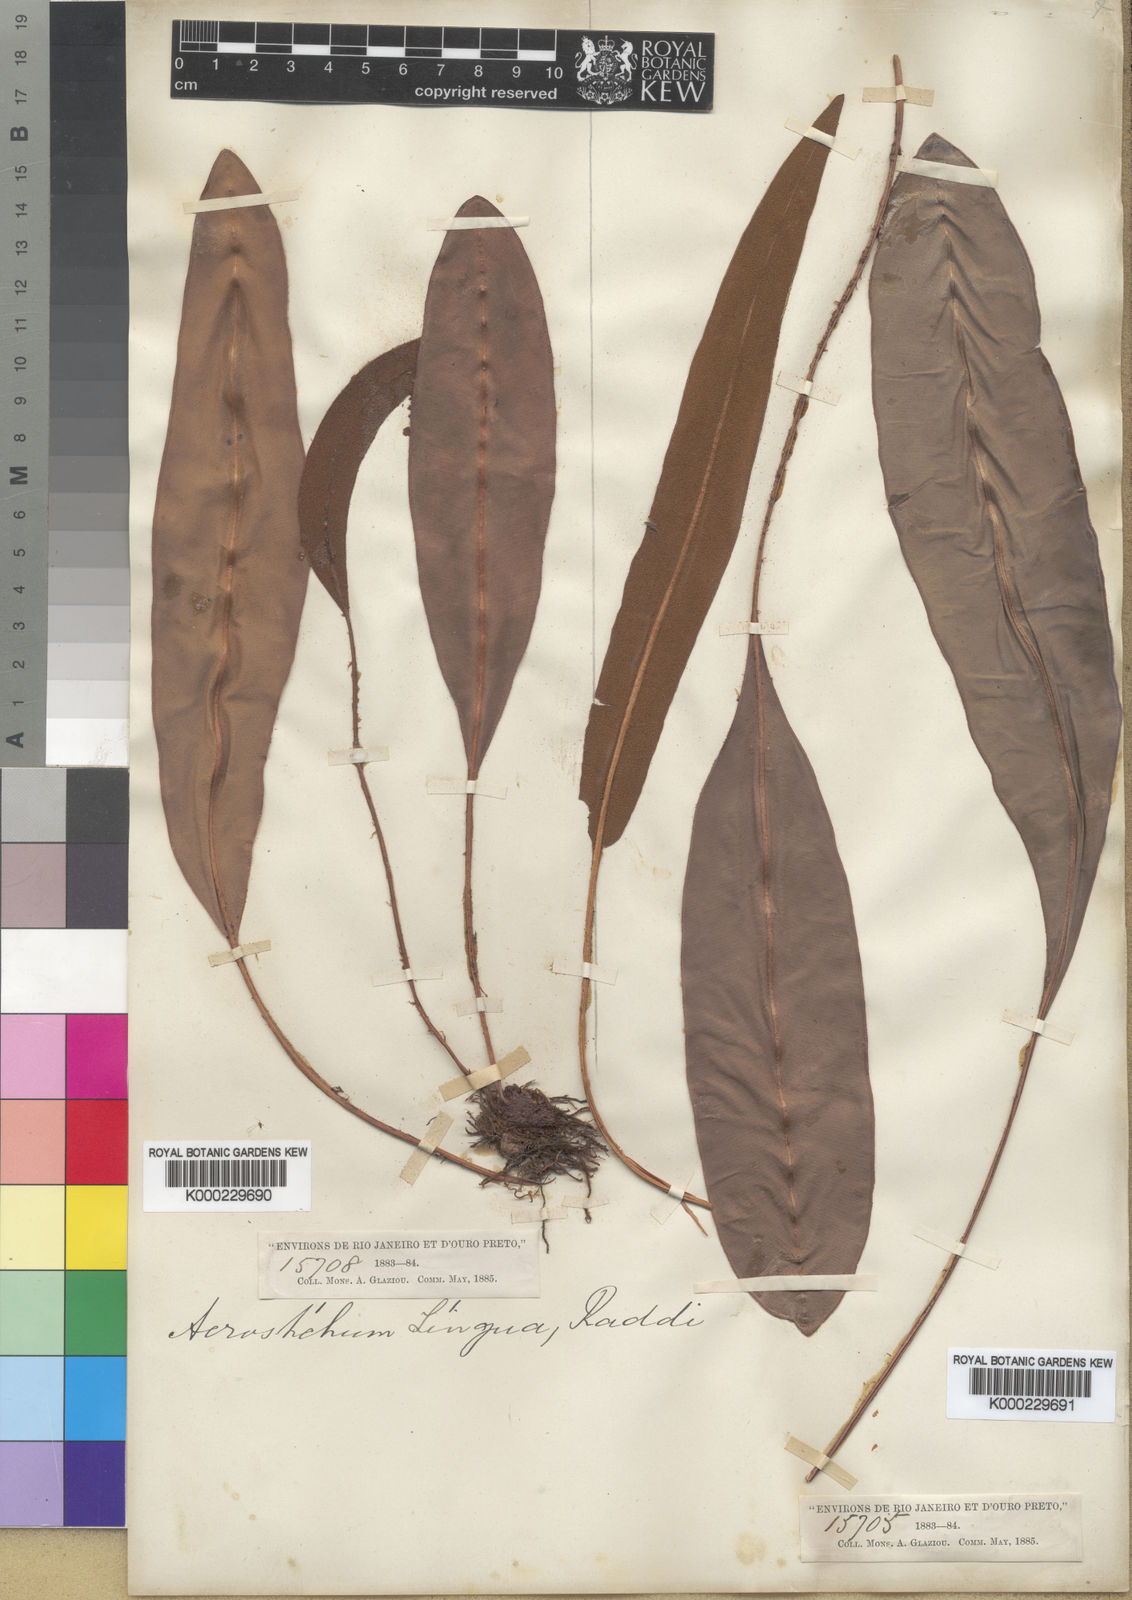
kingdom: Plantae
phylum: Tracheophyta
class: Polypodiopsida
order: Polypodiales
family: Dryopteridaceae
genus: Elaphoglossum
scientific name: Elaphoglossum lingua
